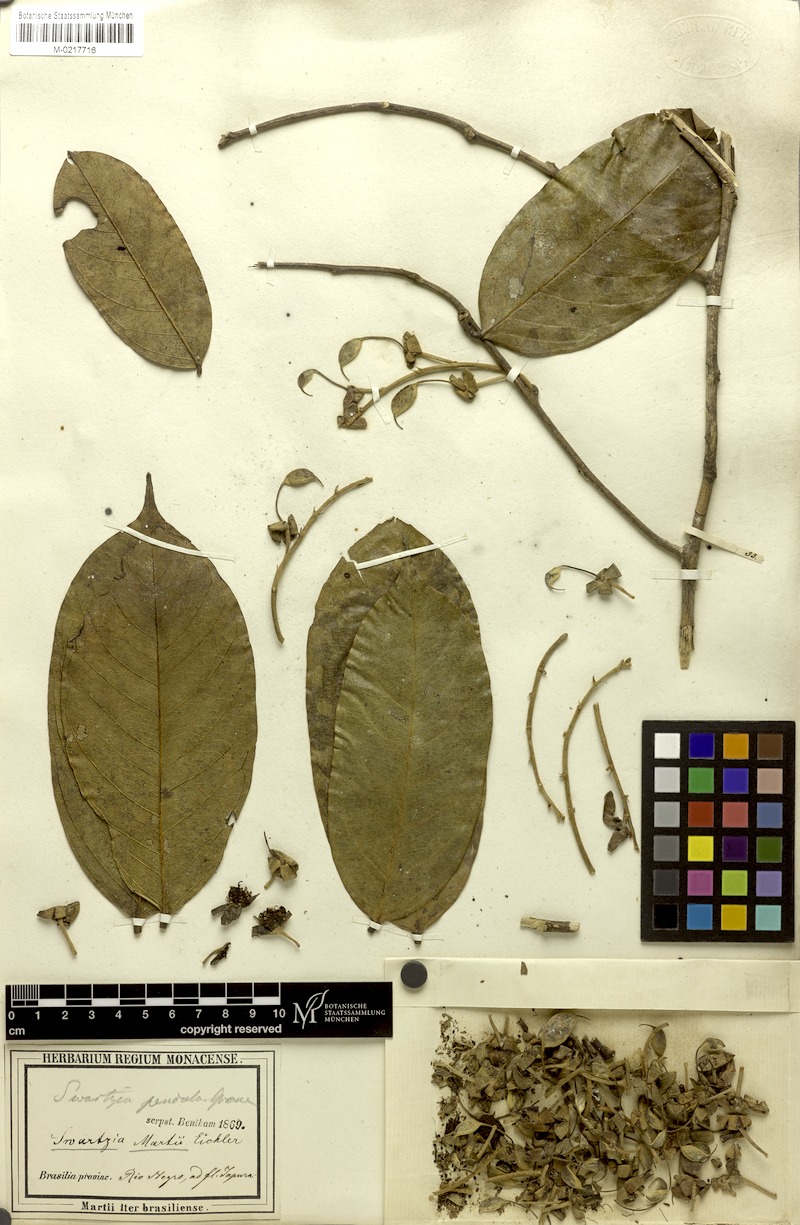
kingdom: Plantae
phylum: Tracheophyta
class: Magnoliopsida
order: Fabales
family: Fabaceae
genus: Swartzia
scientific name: Swartzia martii
